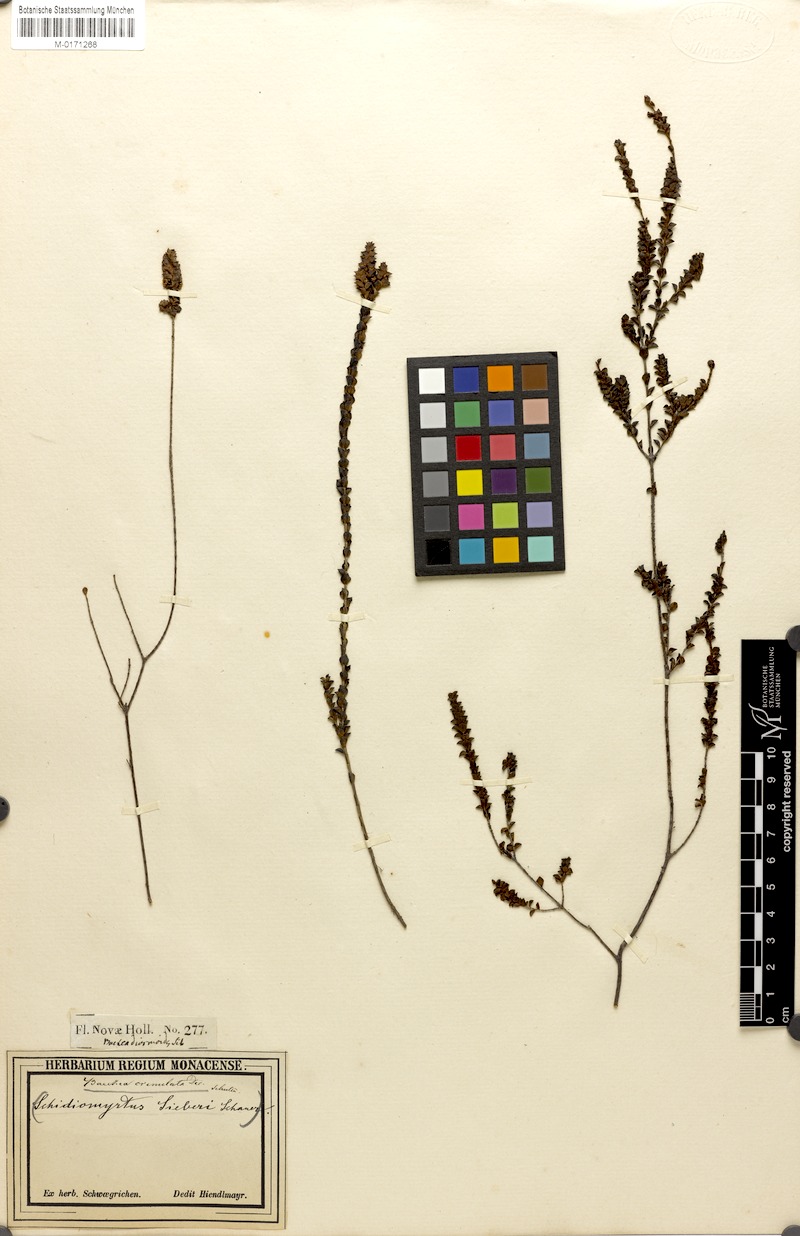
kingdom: Plantae
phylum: Tracheophyta
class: Magnoliopsida
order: Myrtales
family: Myrtaceae
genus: Baeckea
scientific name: Baeckea imbricata
